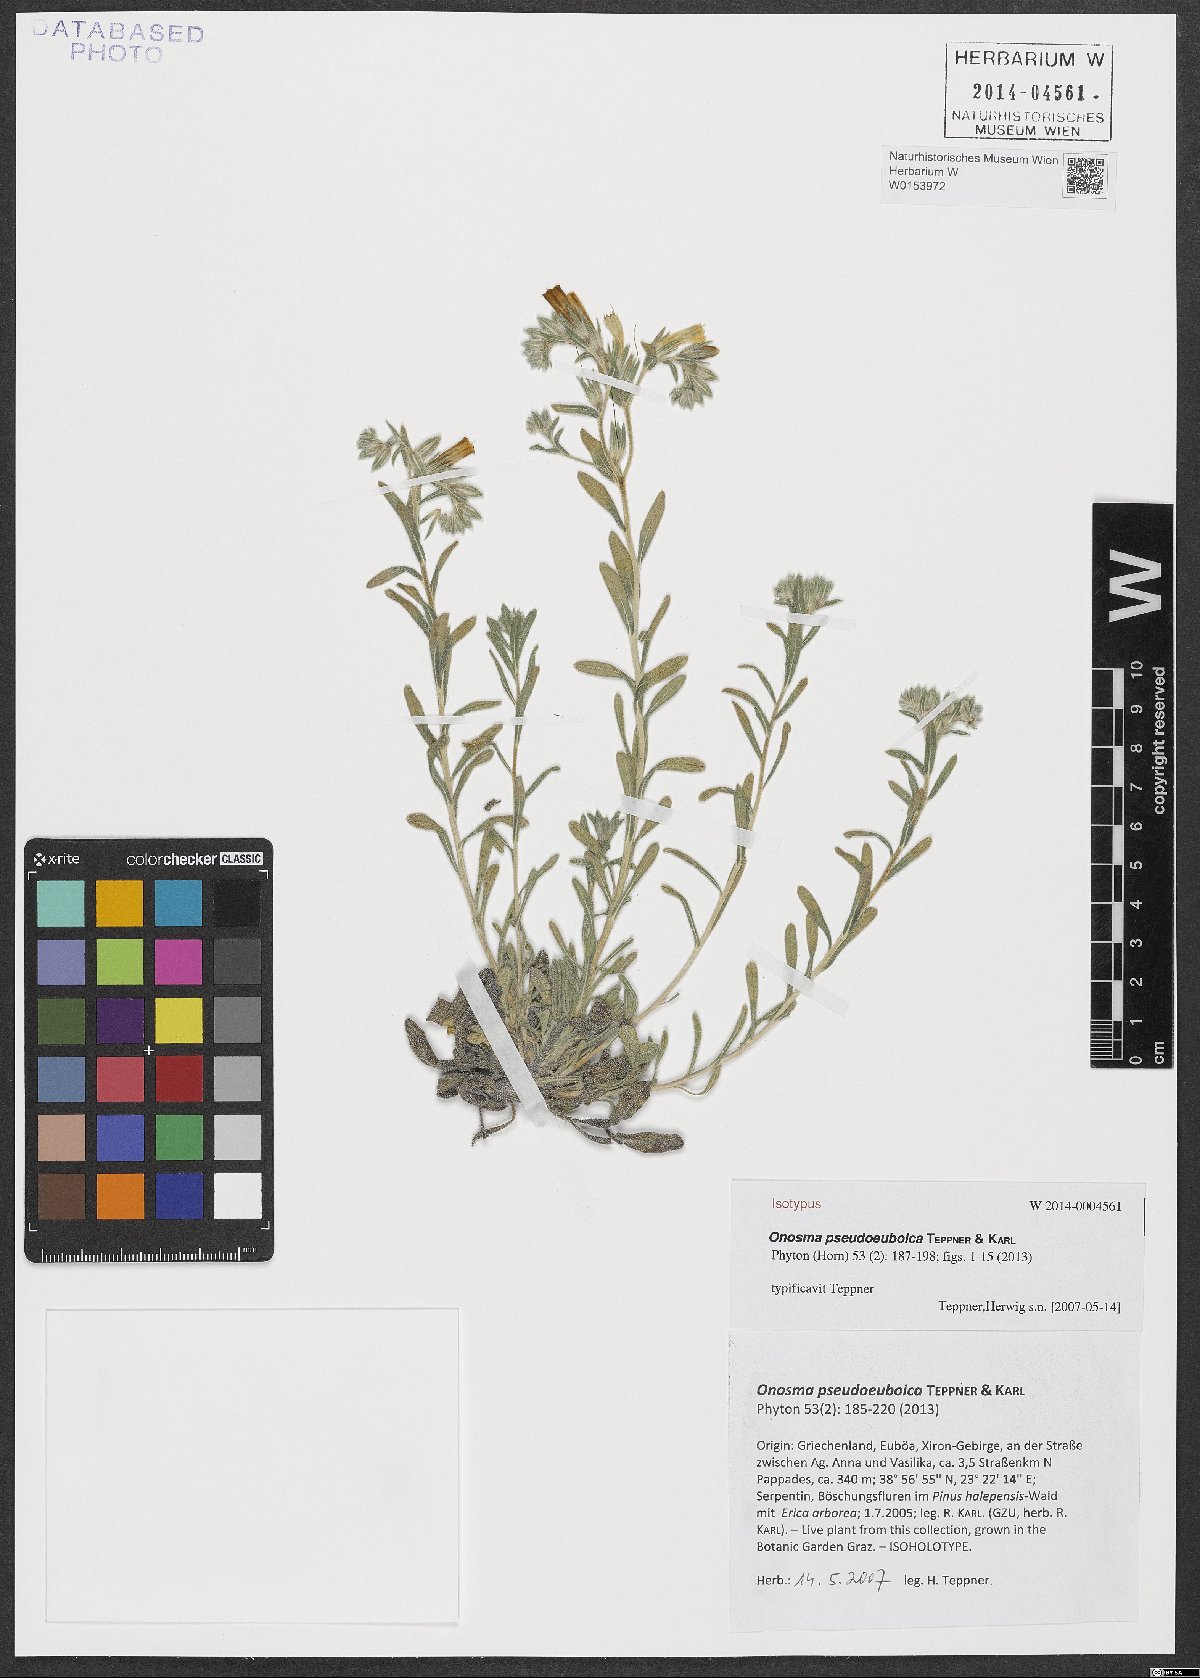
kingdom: Plantae
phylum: Tracheophyta
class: Magnoliopsida
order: Boraginales
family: Boraginaceae
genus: Onosma
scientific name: Onosma pseudoeuboica
